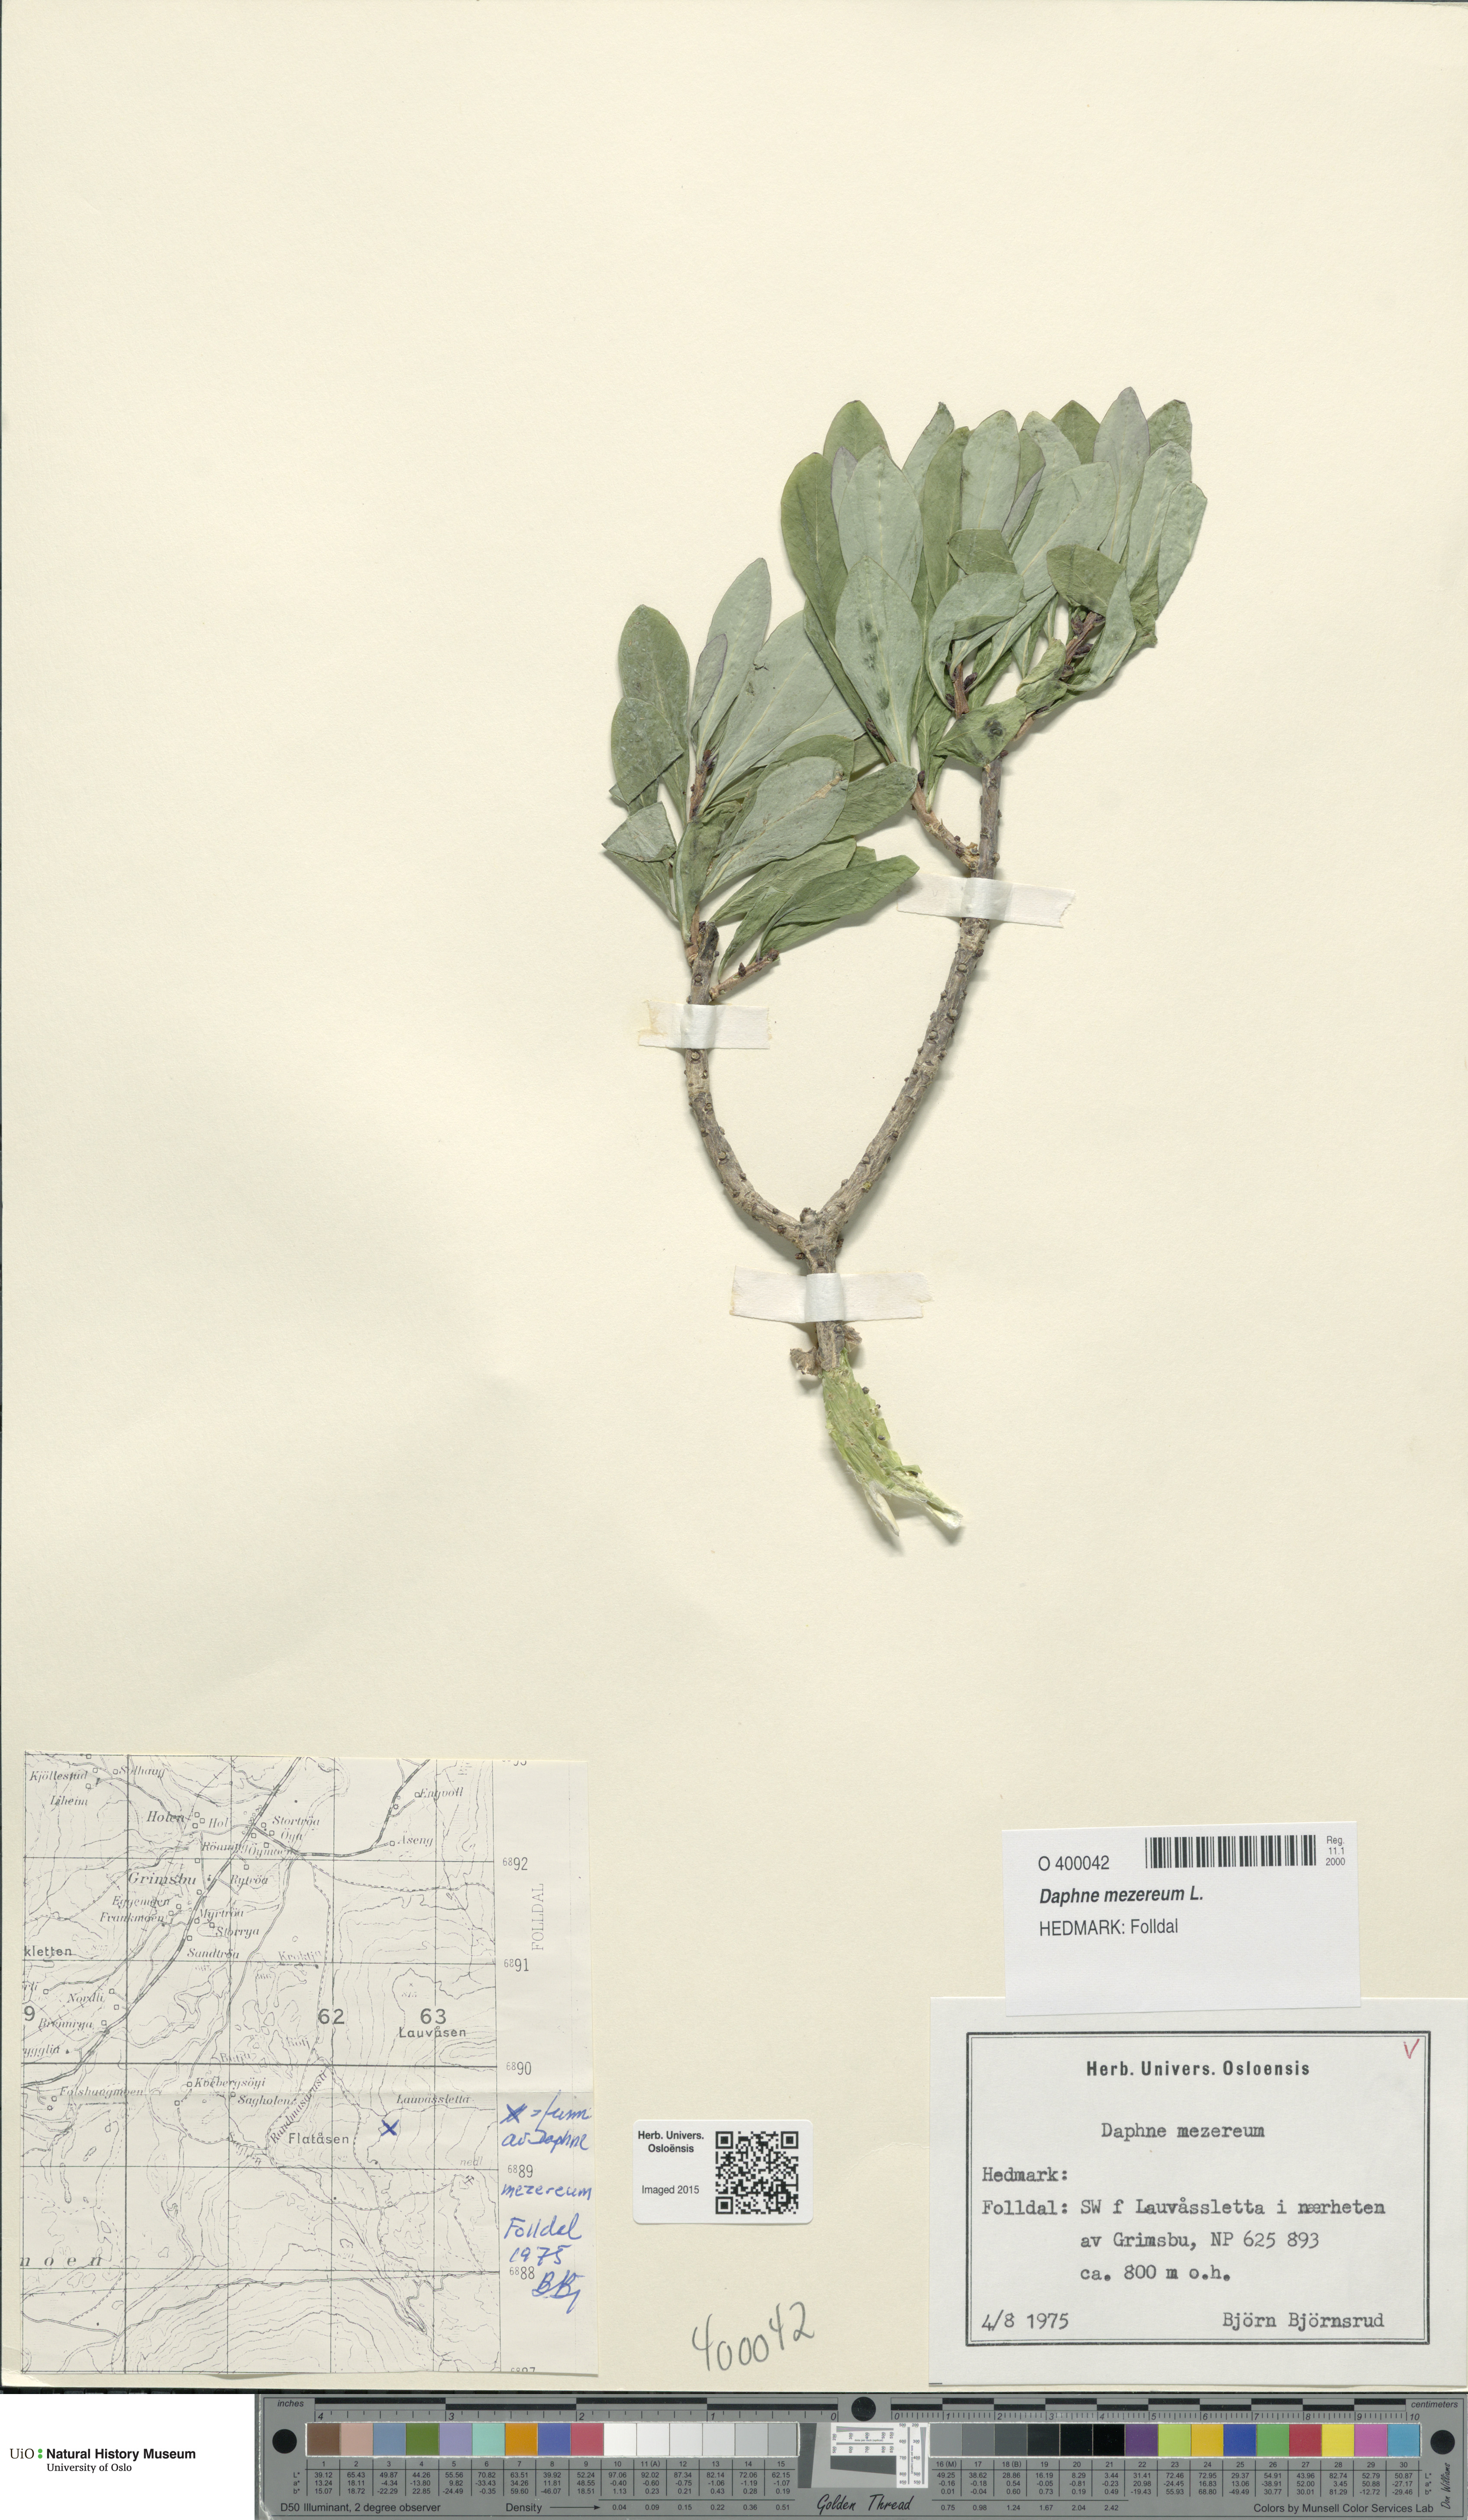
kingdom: Plantae
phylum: Tracheophyta
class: Magnoliopsida
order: Malvales
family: Thymelaeaceae
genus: Daphne
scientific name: Daphne mezereum
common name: Mezereon
